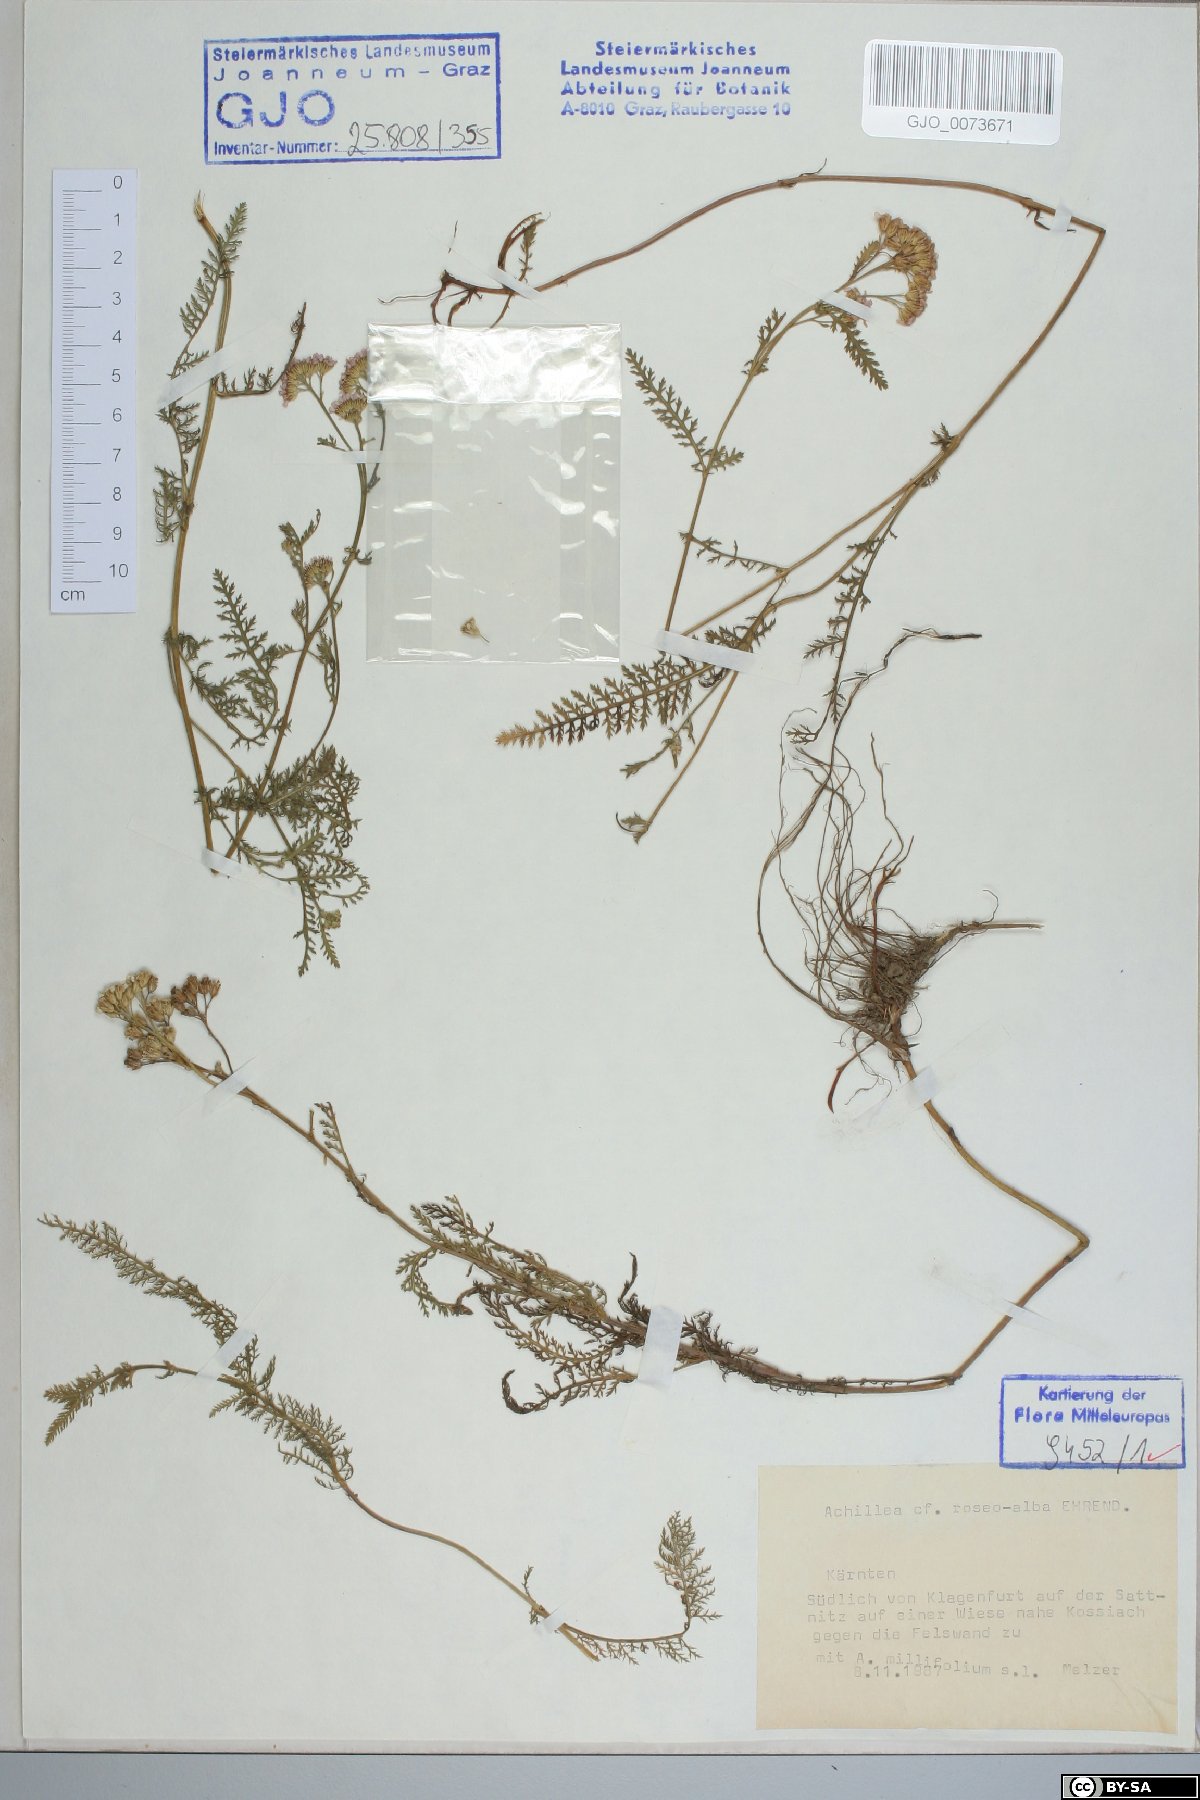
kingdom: Plantae
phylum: Tracheophyta
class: Magnoliopsida
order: Asterales
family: Asteraceae
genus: Achillea
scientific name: Achillea roseoalba
